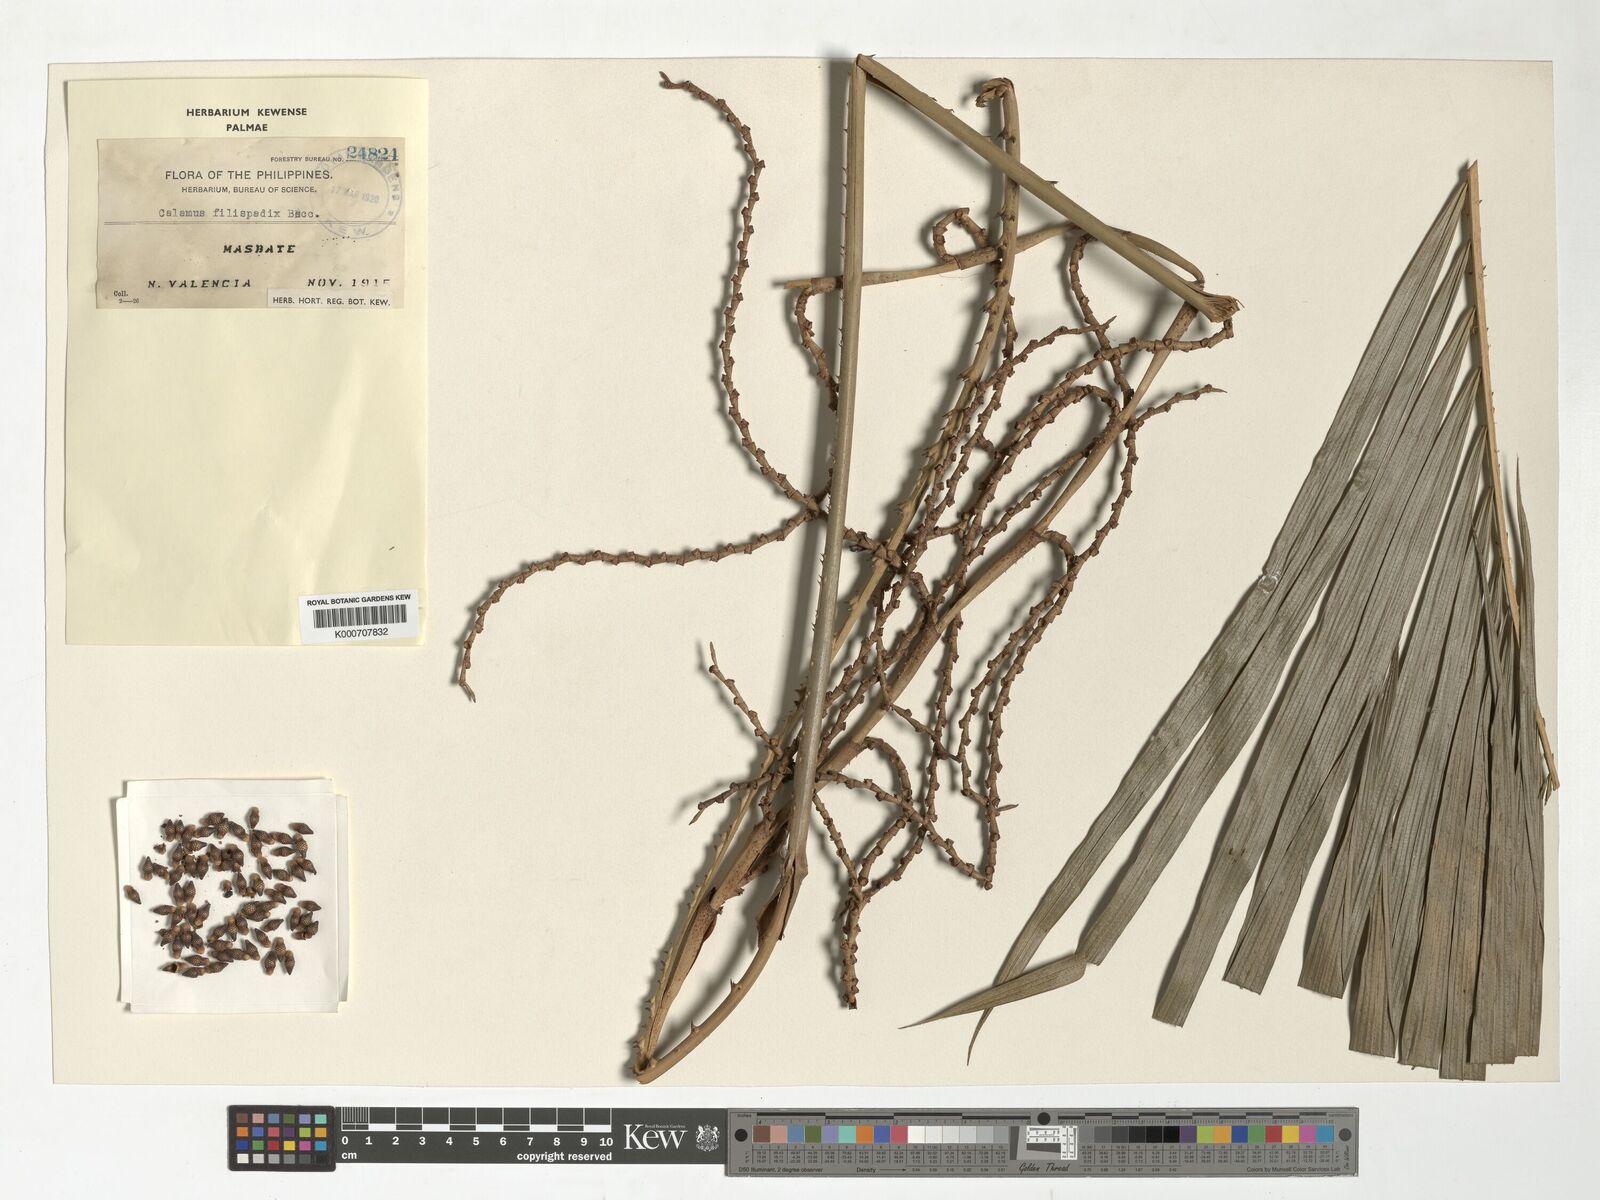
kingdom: Plantae
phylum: Tracheophyta
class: Liliopsida
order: Arecales
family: Arecaceae
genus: Calamus
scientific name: Calamus filispadix
